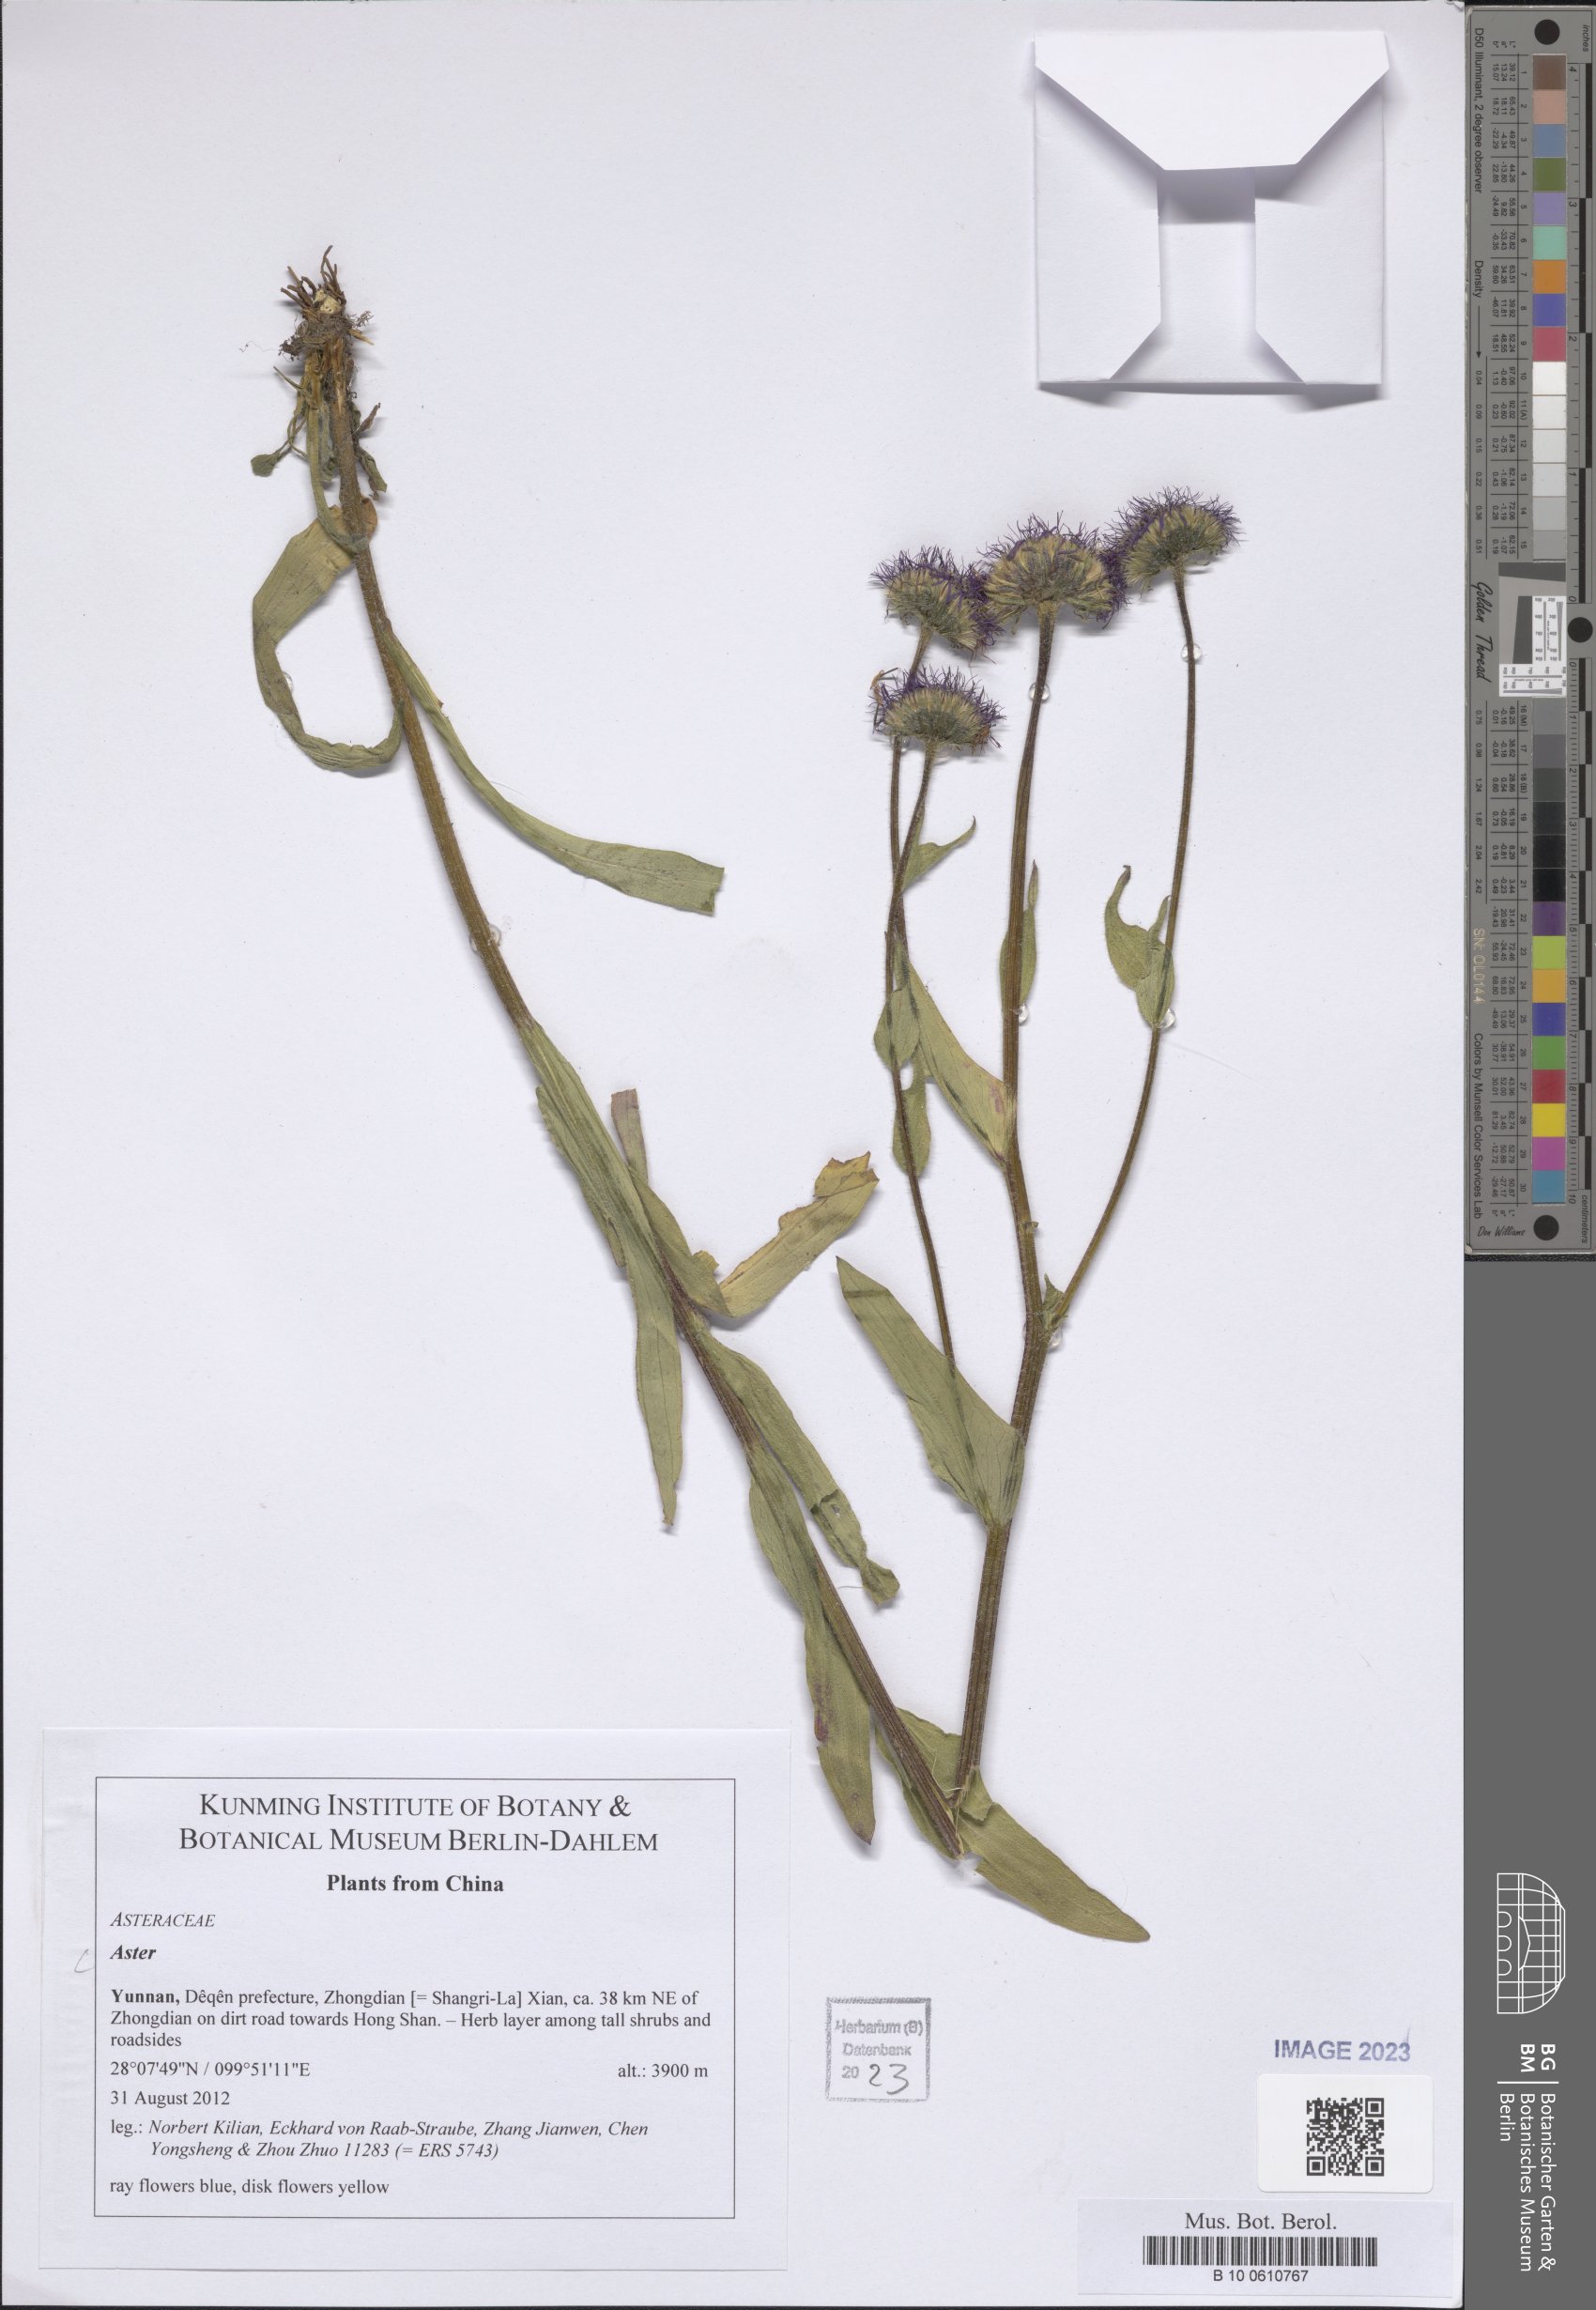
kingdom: Plantae
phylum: Tracheophyta
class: Magnoliopsida
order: Asterales
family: Asteraceae
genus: Aster
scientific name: Aster
